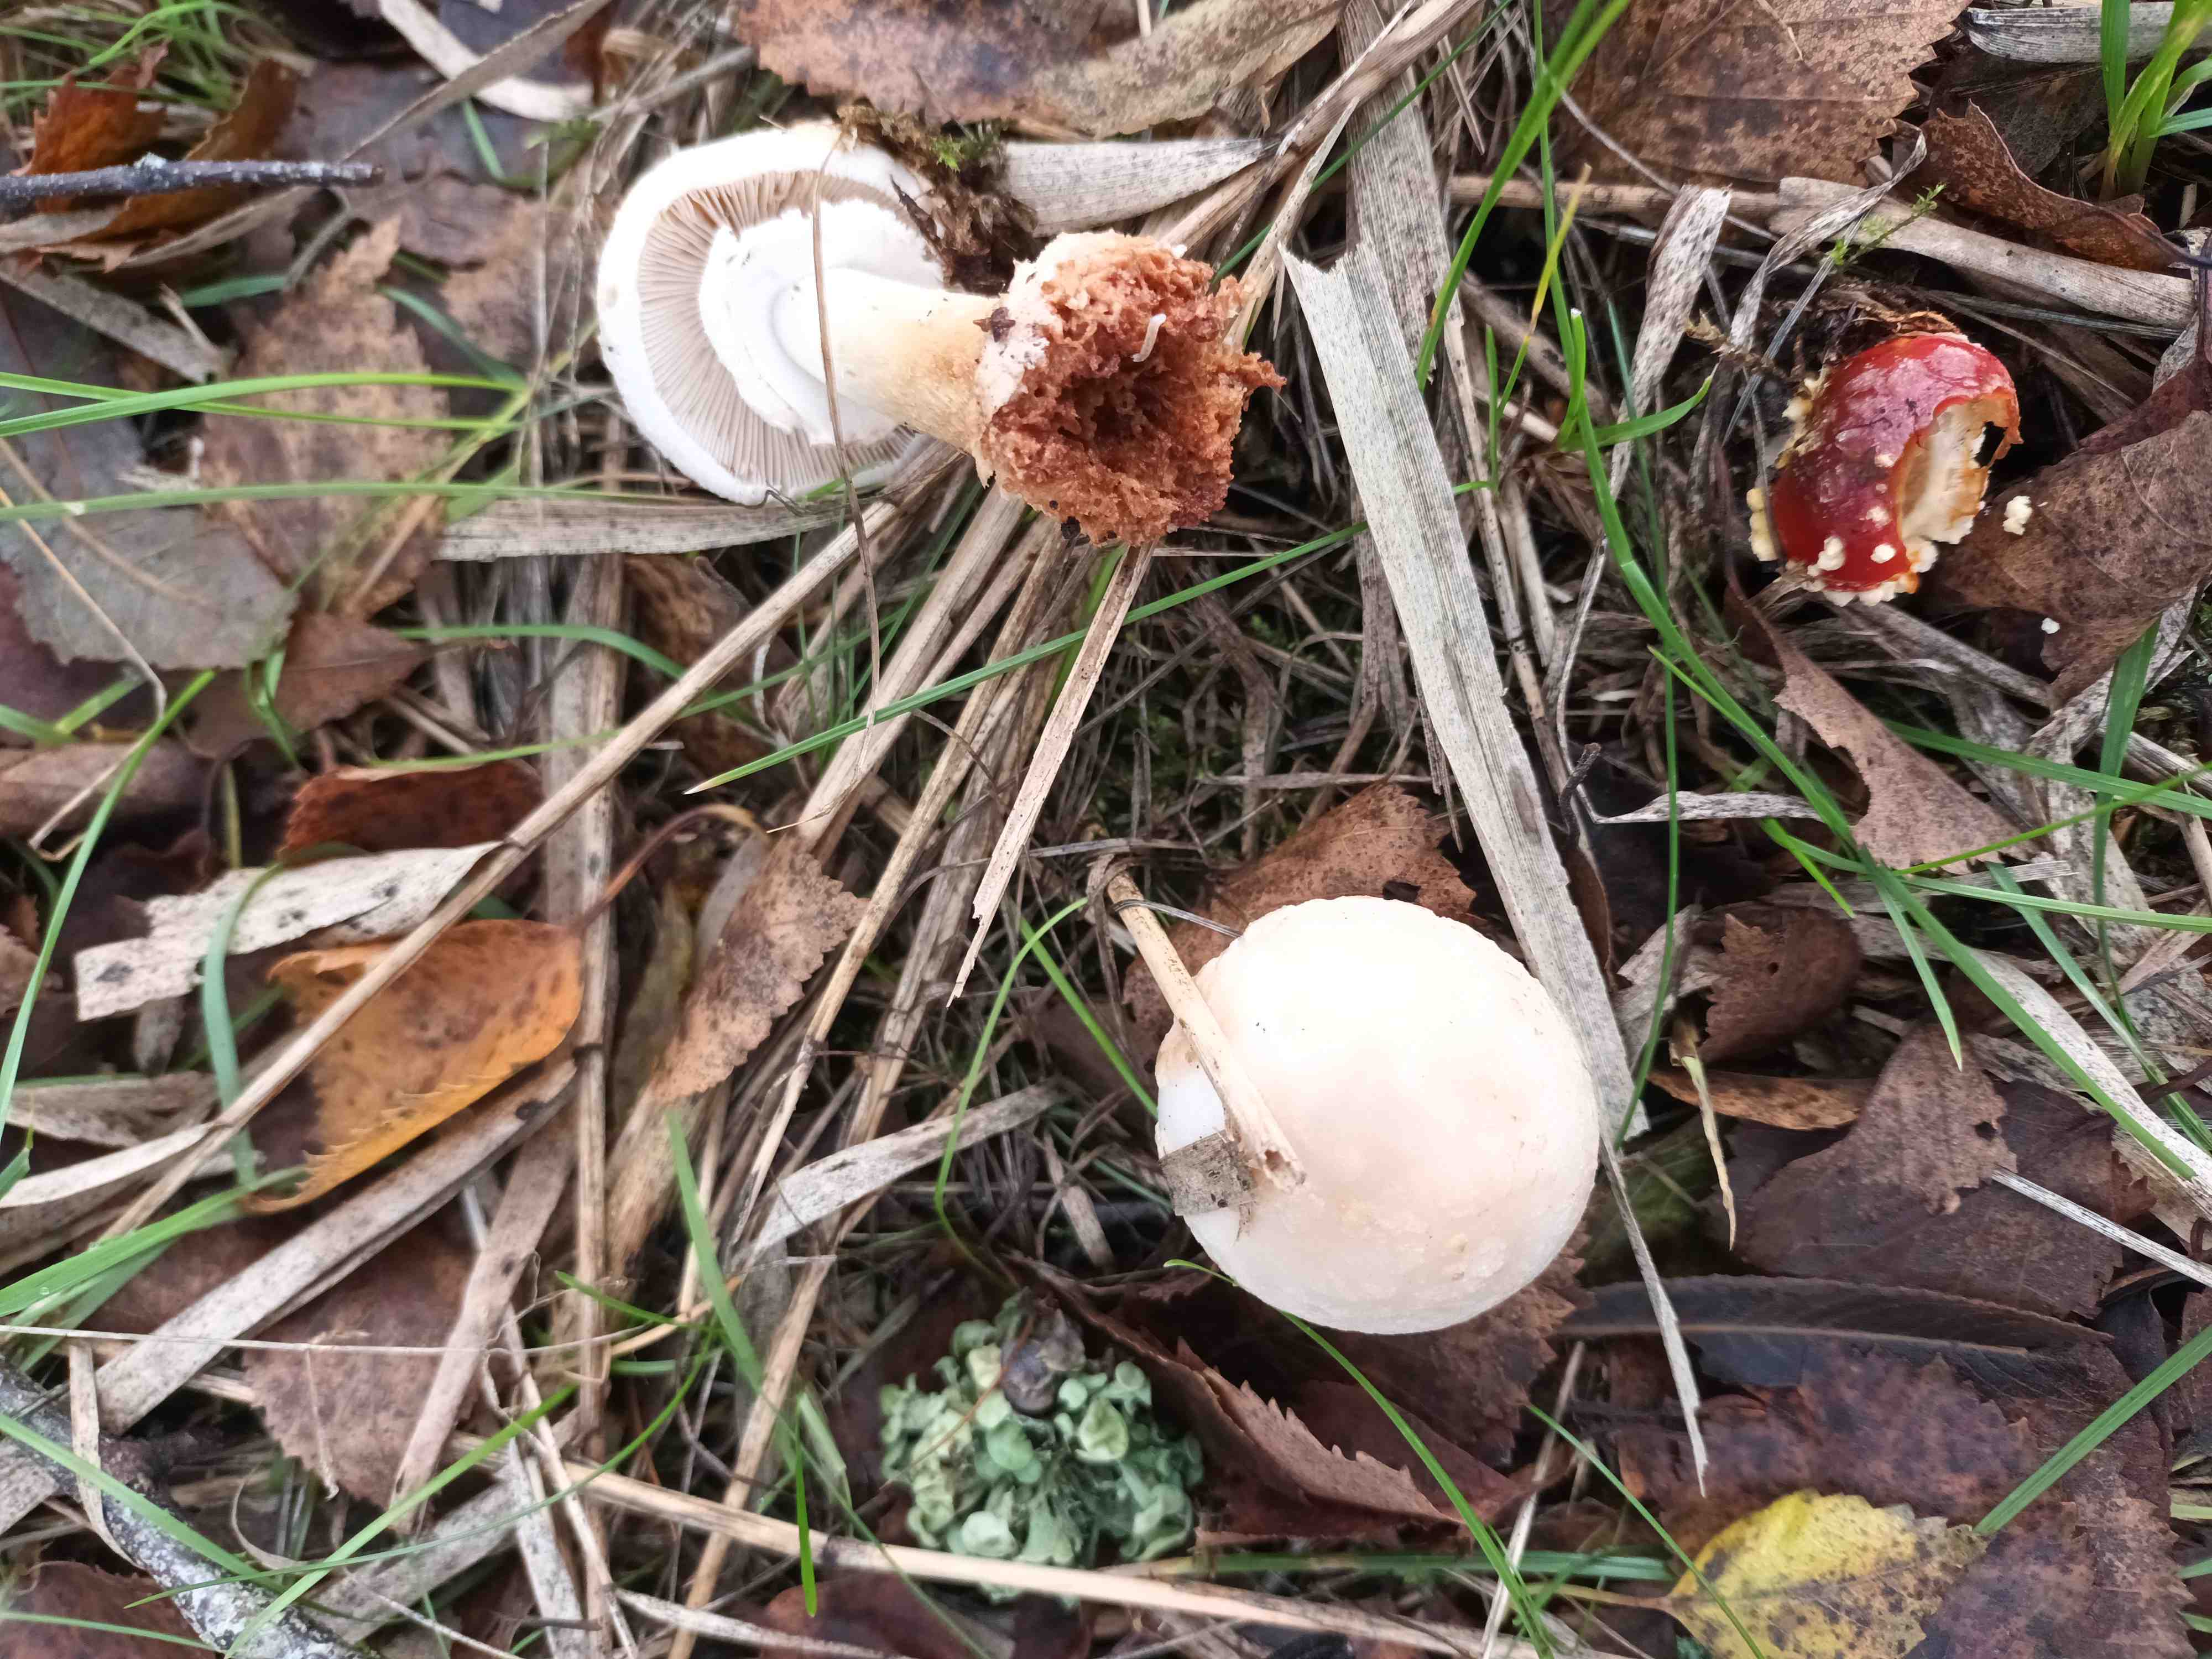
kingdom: Fungi
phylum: Basidiomycota
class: Agaricomycetes
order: Agaricales
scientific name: Agaricales
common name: champignonordenen
